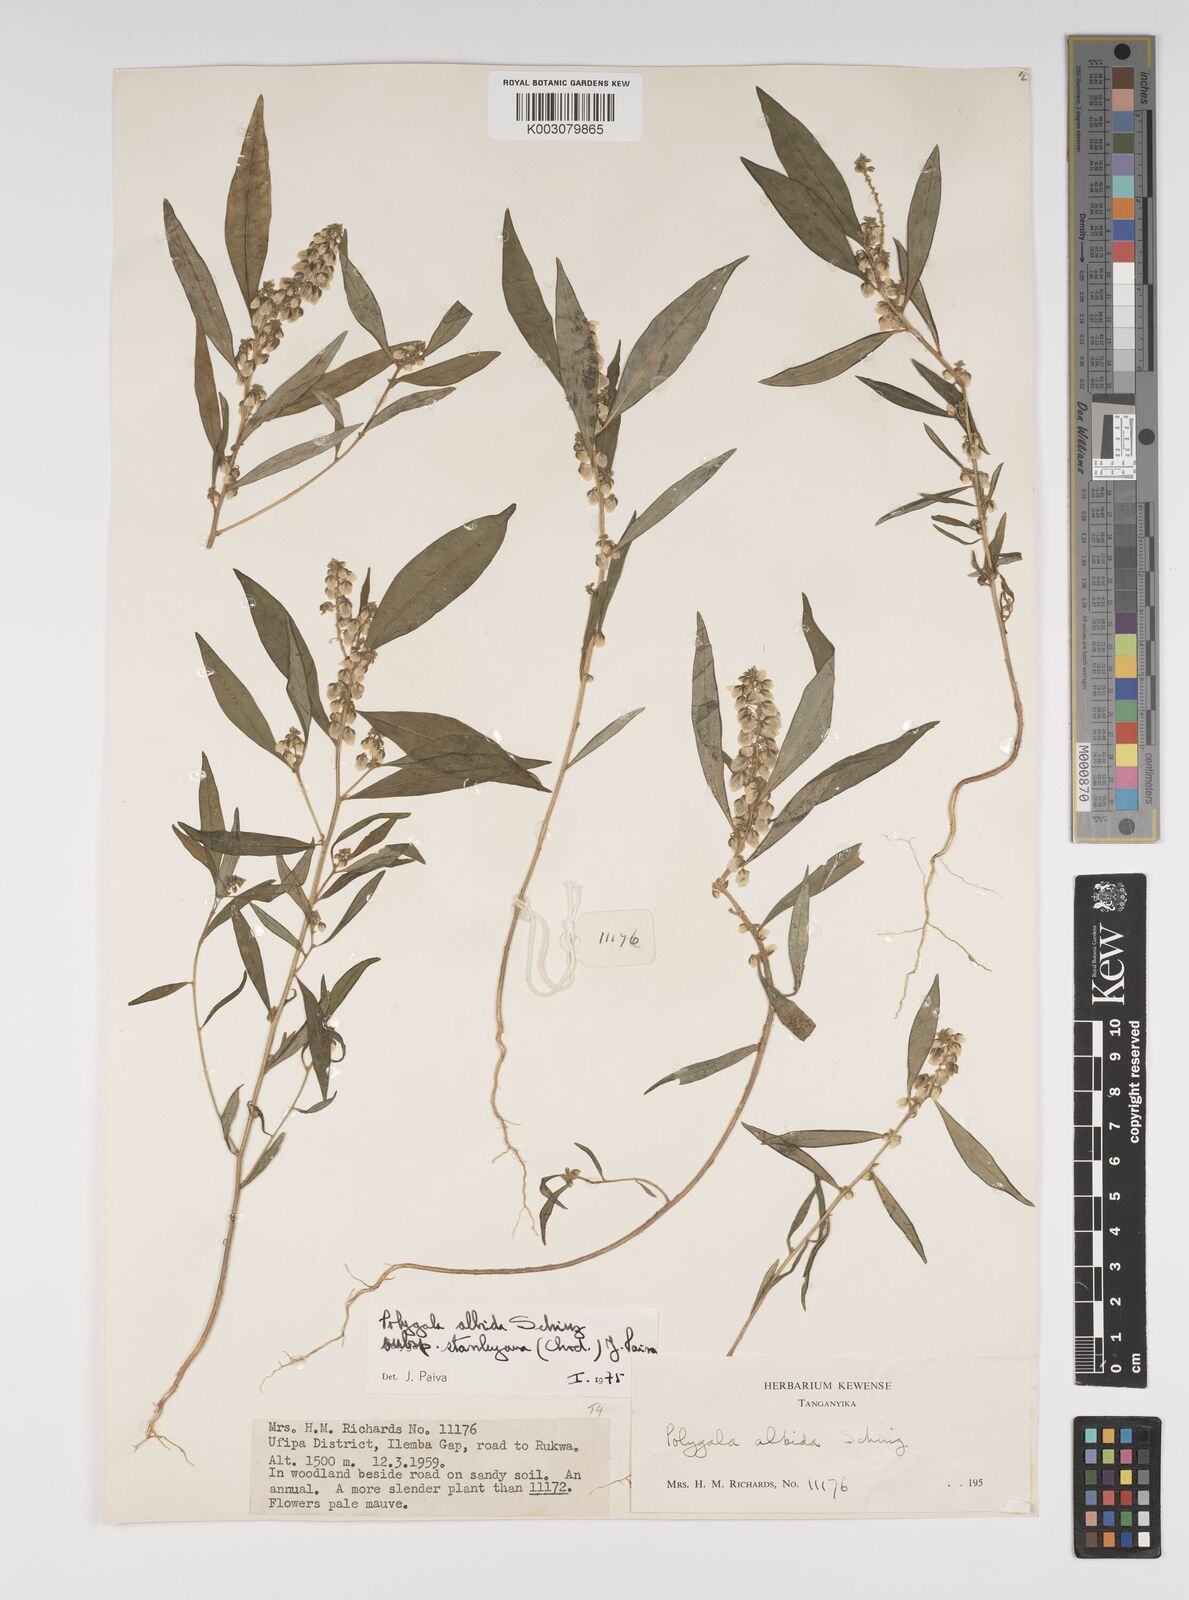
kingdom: Plantae
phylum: Tracheophyta
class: Magnoliopsida
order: Fabales
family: Polygalaceae
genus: Polygala
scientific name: Polygala albida
